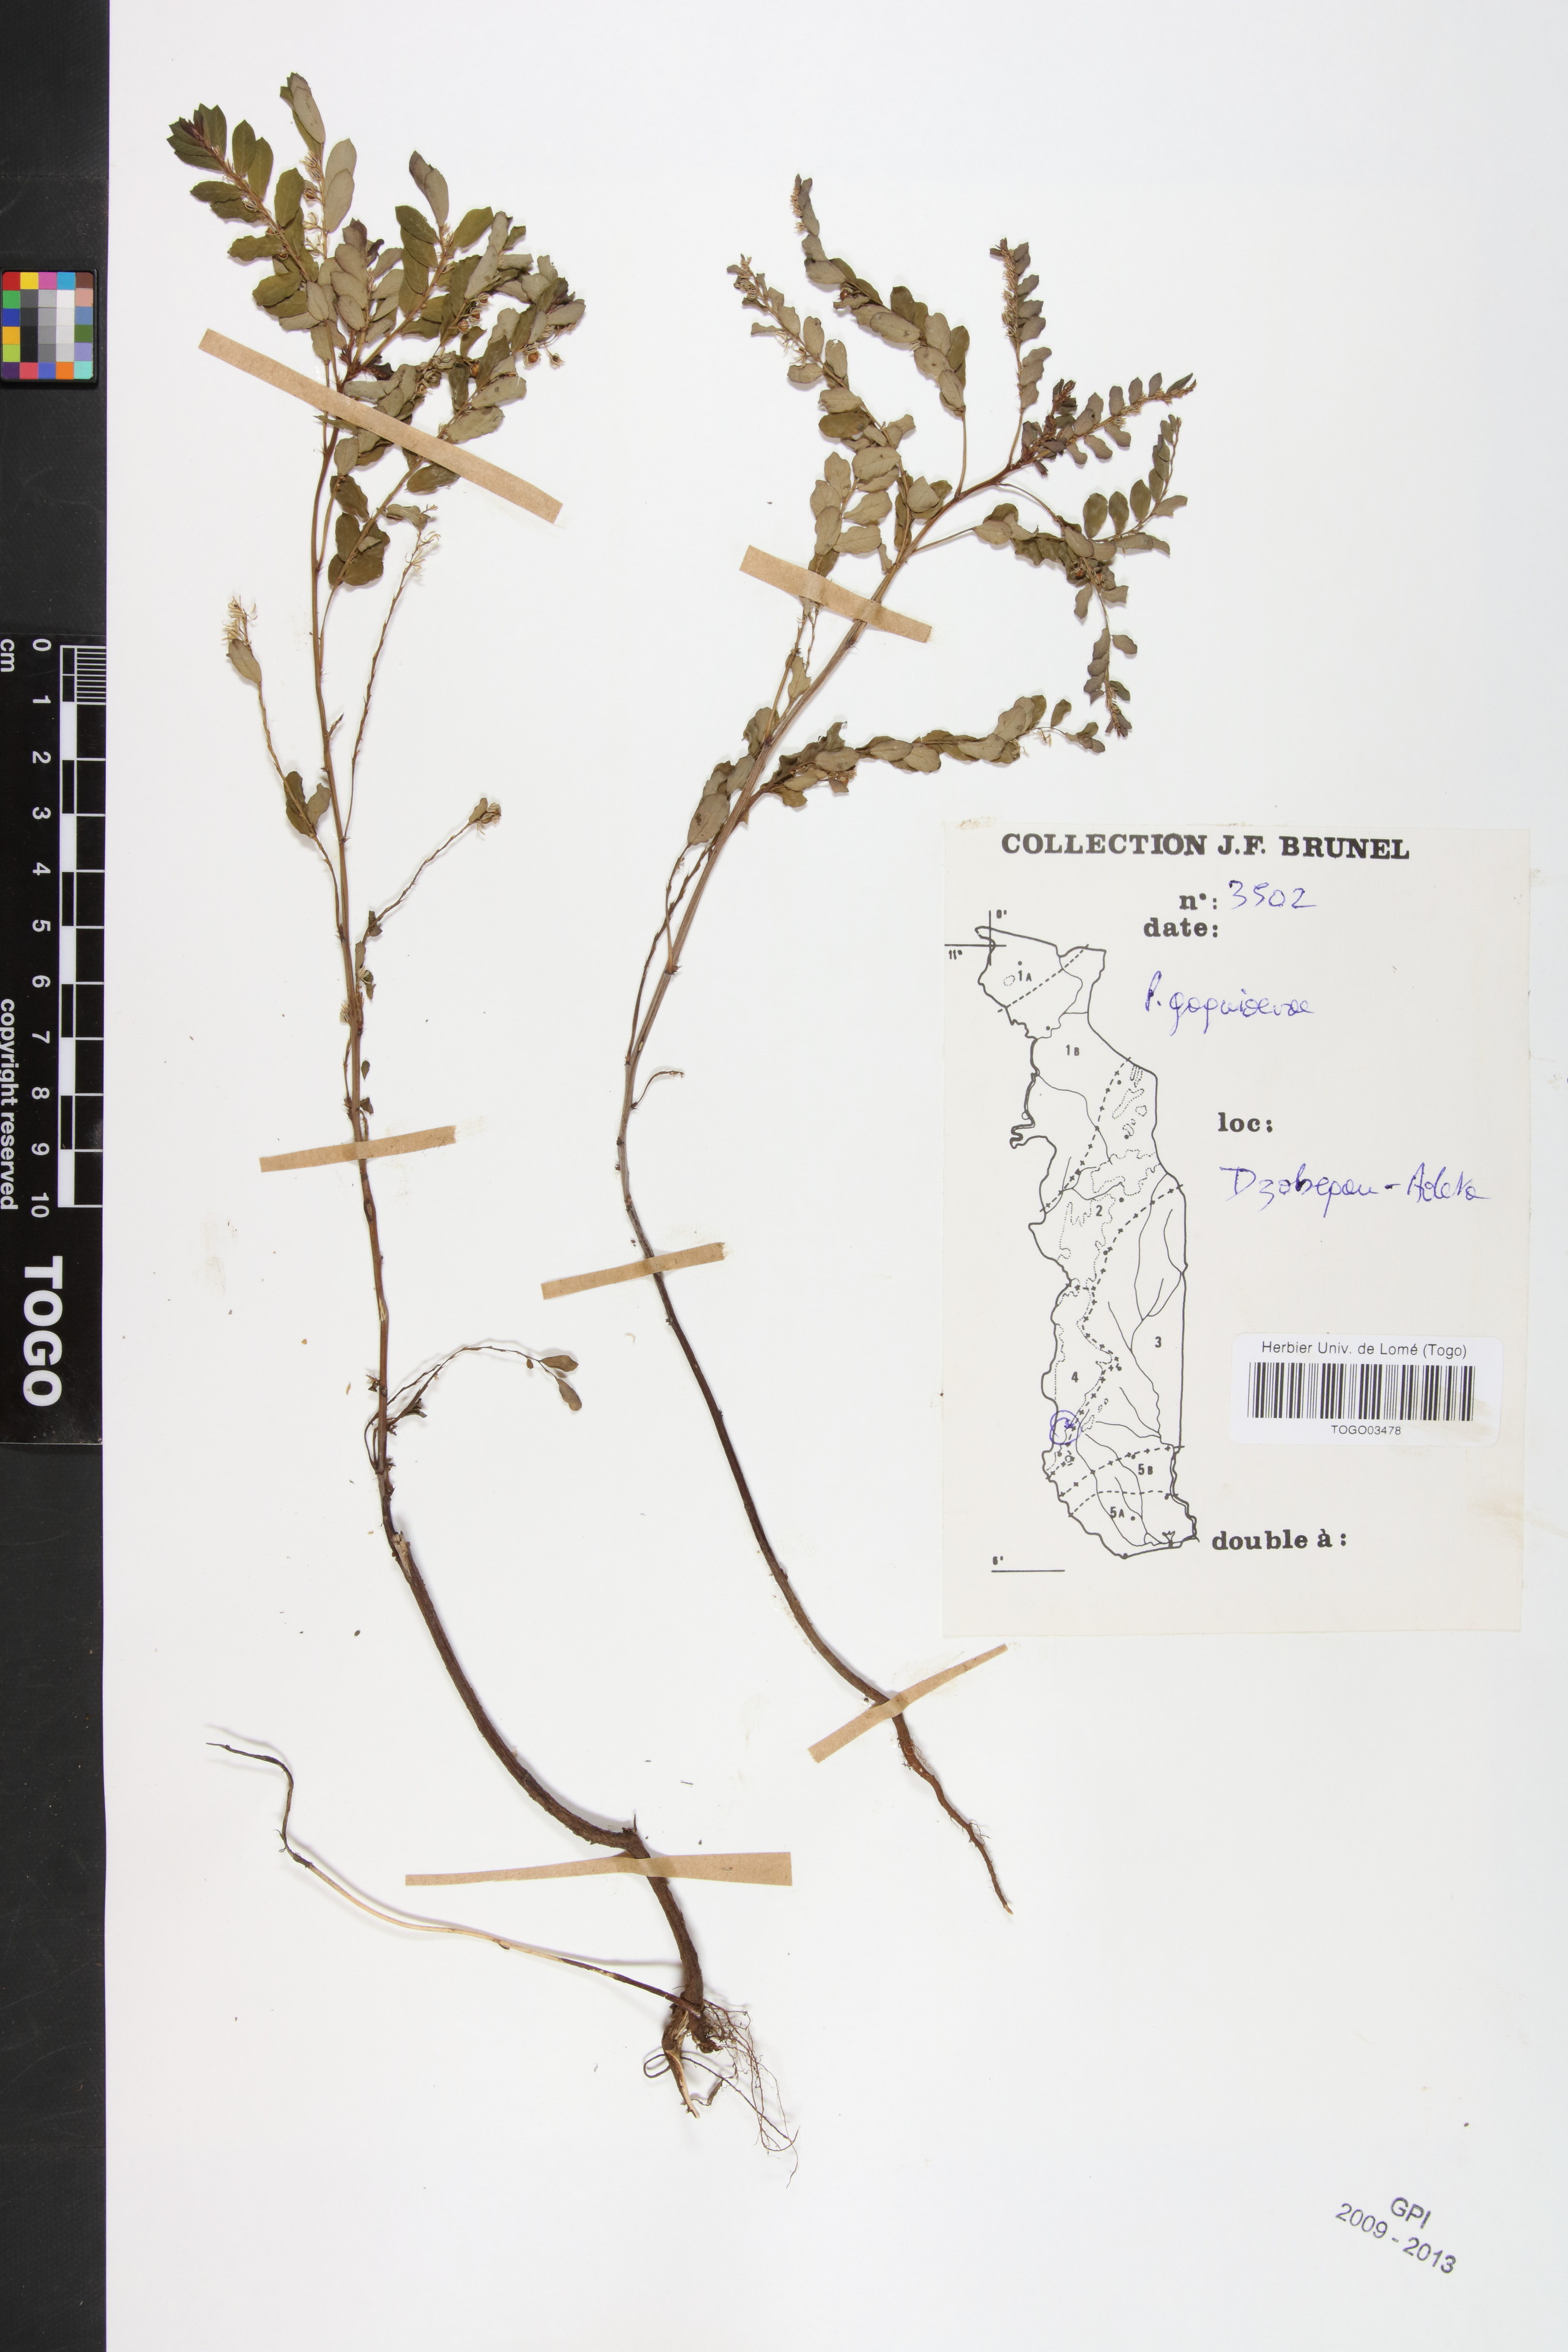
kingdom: Plantae
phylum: Tracheophyta
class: Magnoliopsida
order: Malpighiales
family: Phyllanthaceae
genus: Phyllanthus
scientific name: Phyllanthus gagnioevae
